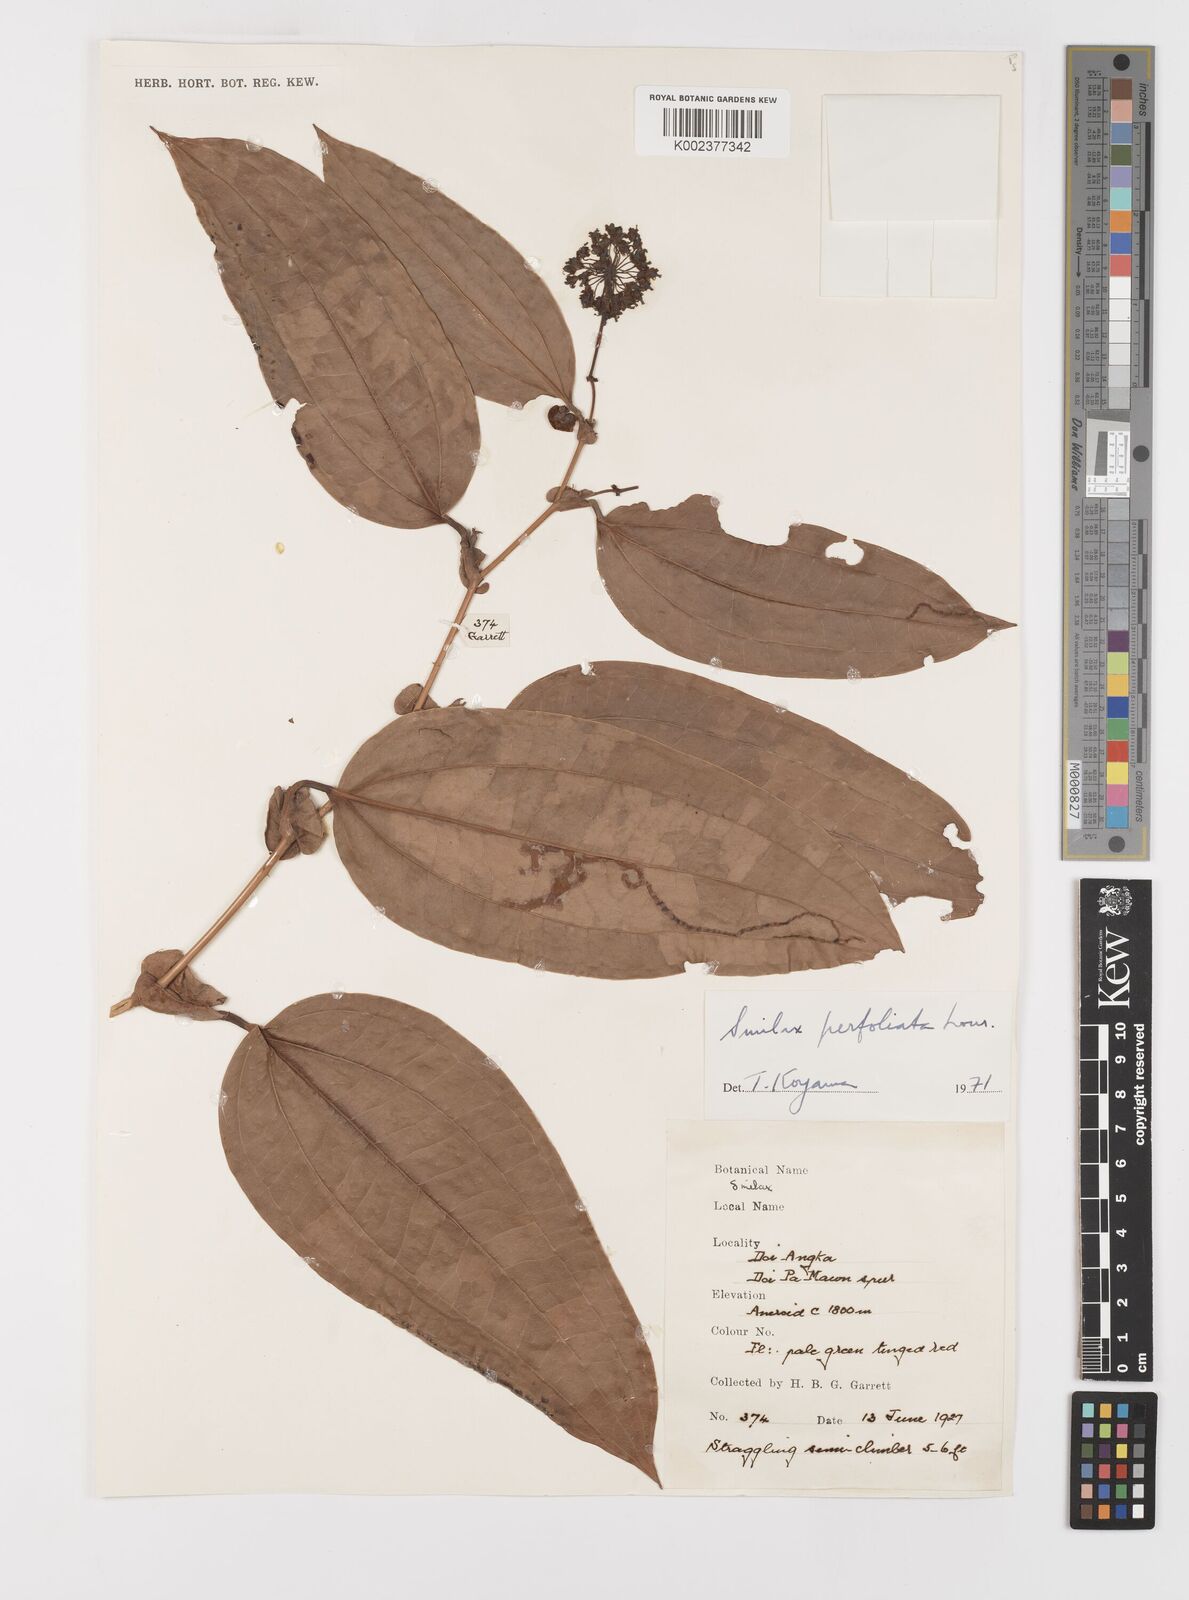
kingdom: Plantae
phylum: Tracheophyta
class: Liliopsida
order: Liliales
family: Smilacaceae
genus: Smilax
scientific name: Smilax perfoliata
